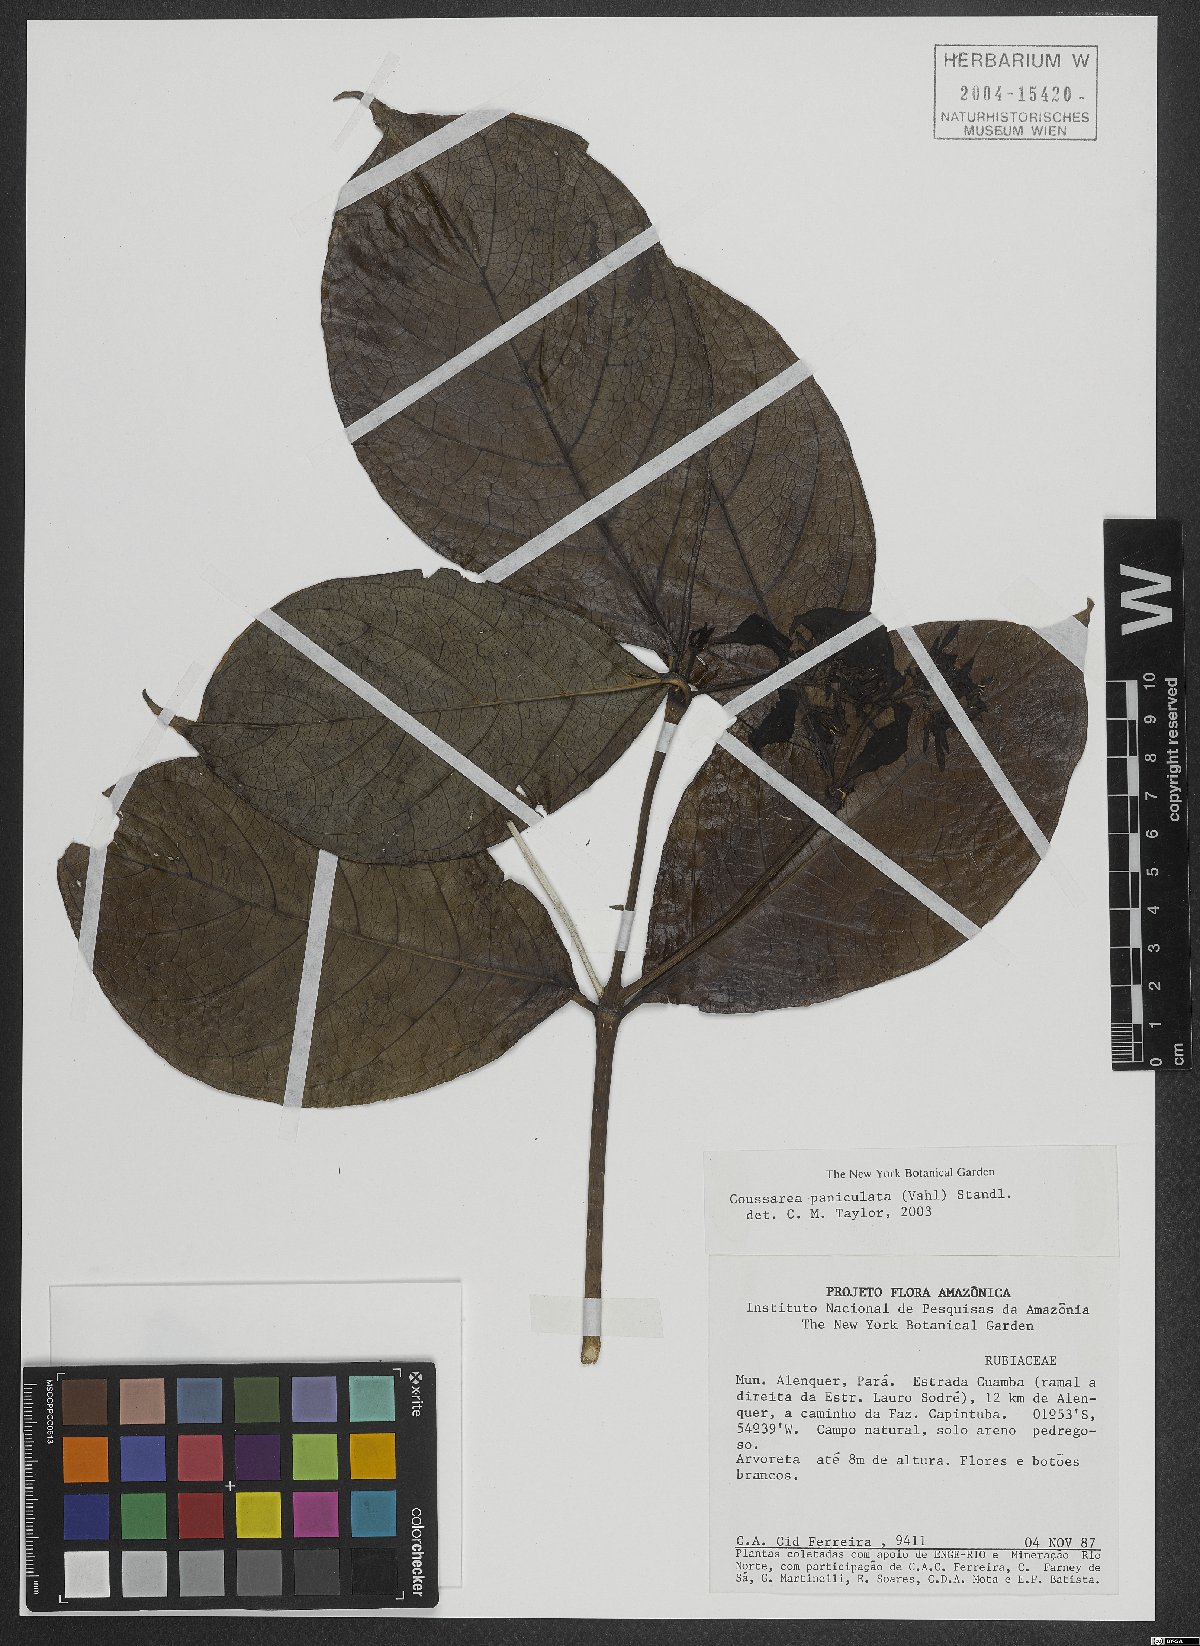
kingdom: Plantae
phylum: Tracheophyta
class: Magnoliopsida
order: Gentianales
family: Rubiaceae
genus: Coussarea
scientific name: Coussarea paniculata
